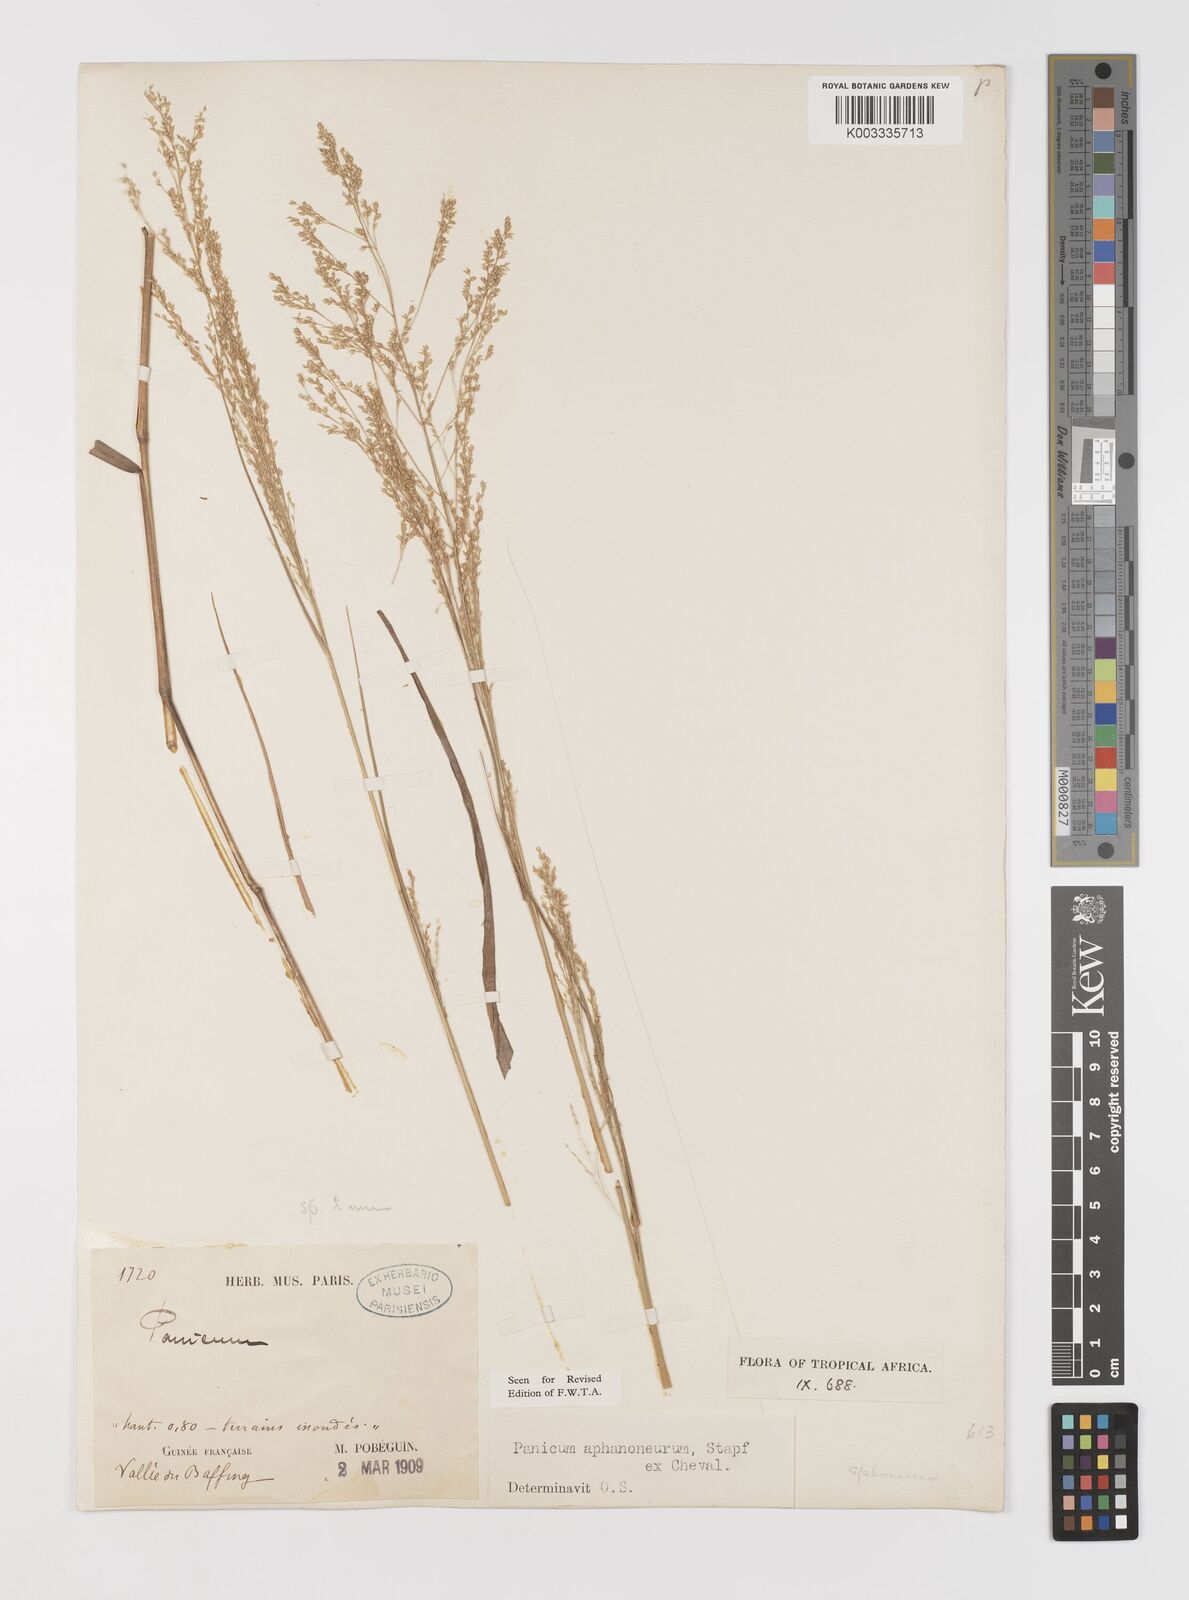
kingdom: Plantae
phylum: Tracheophyta
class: Liliopsida
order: Poales
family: Poaceae
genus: Panicum
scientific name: Panicum fluviicola
